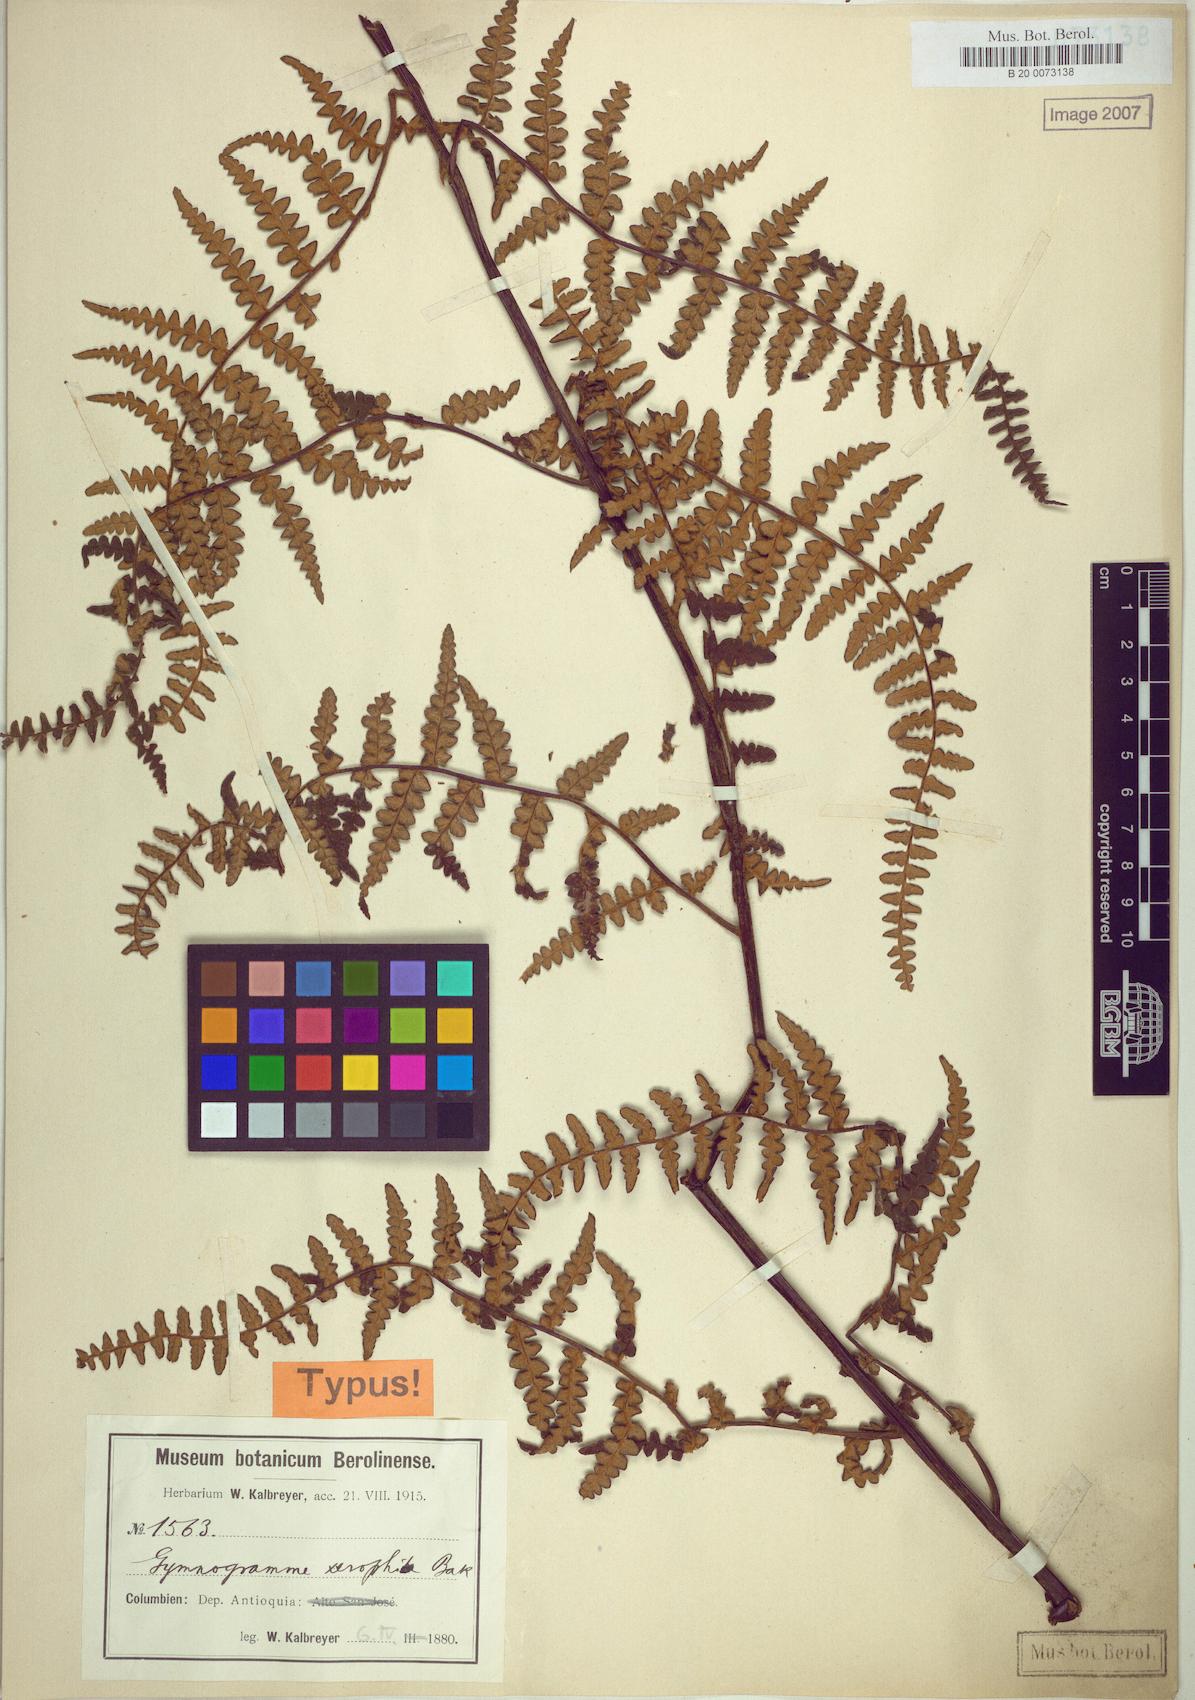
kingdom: Plantae
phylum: Tracheophyta
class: Polypodiopsida
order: Polypodiales
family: Pteridaceae
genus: Pityrogramma
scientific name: Pityrogramma jamesonii
